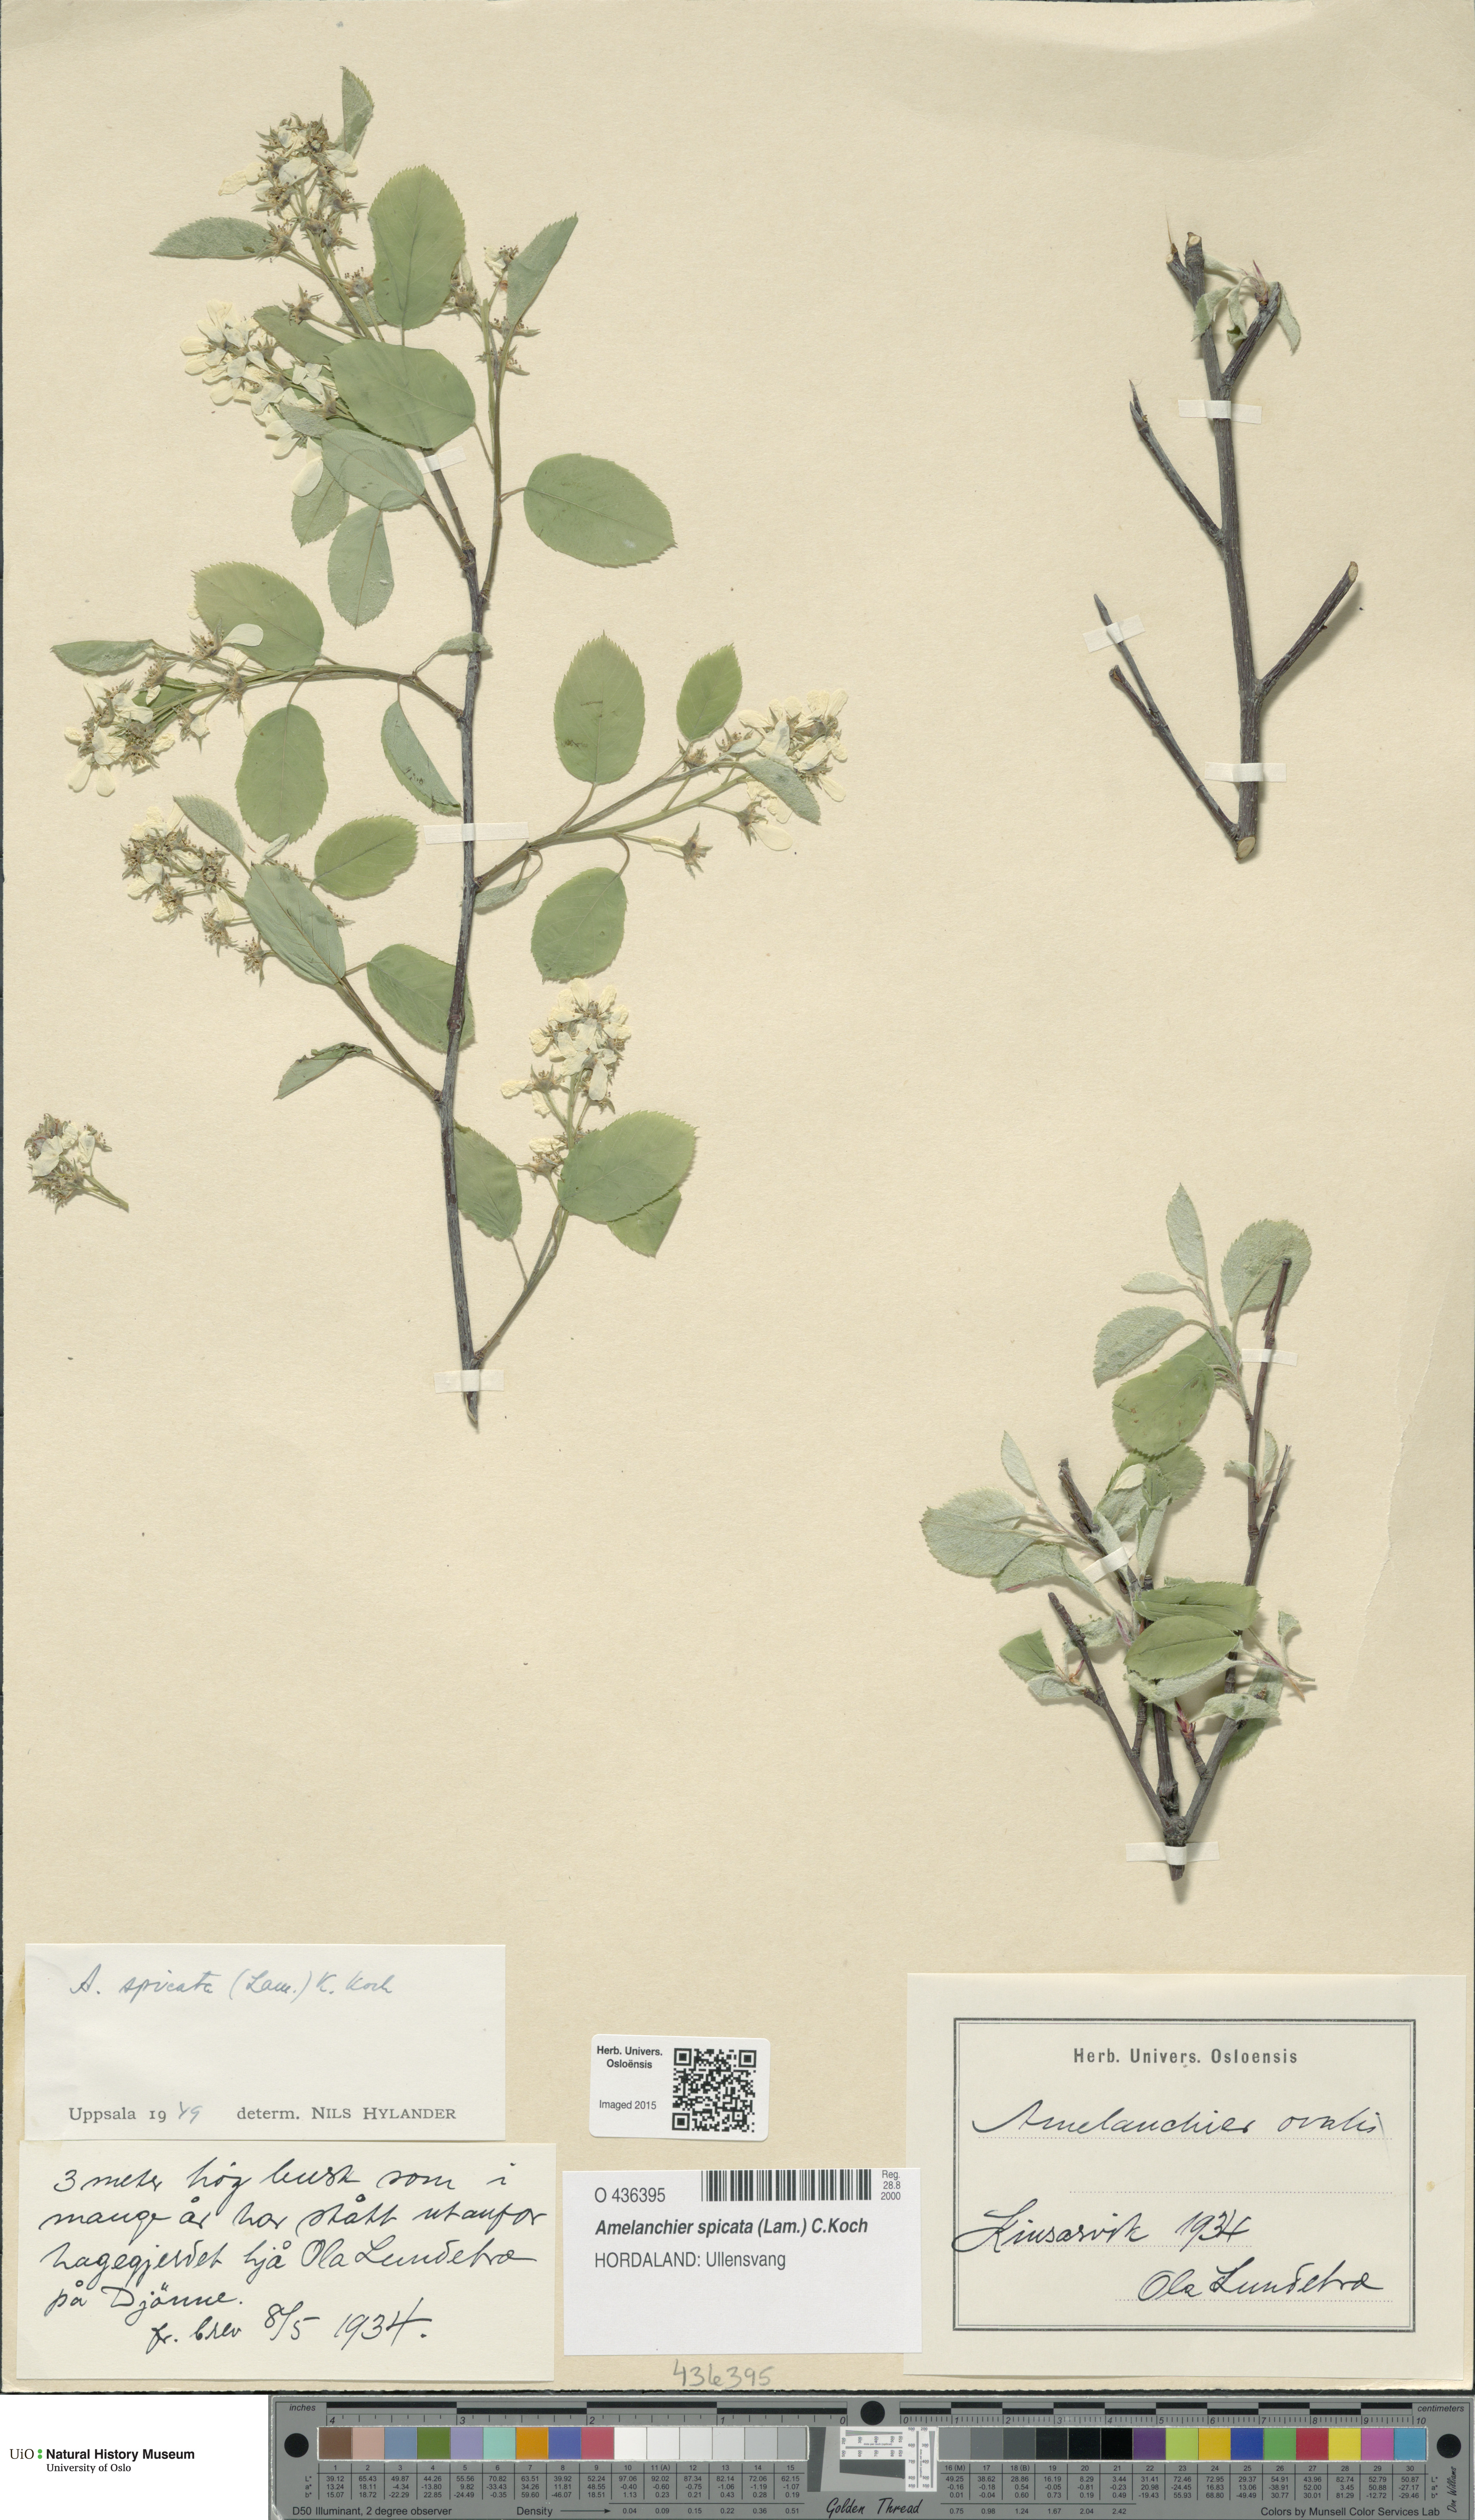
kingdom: Plantae
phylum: Tracheophyta
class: Magnoliopsida
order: Rosales
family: Rosaceae
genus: Amelanchier
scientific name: Amelanchier humilis
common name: Low juneberry
